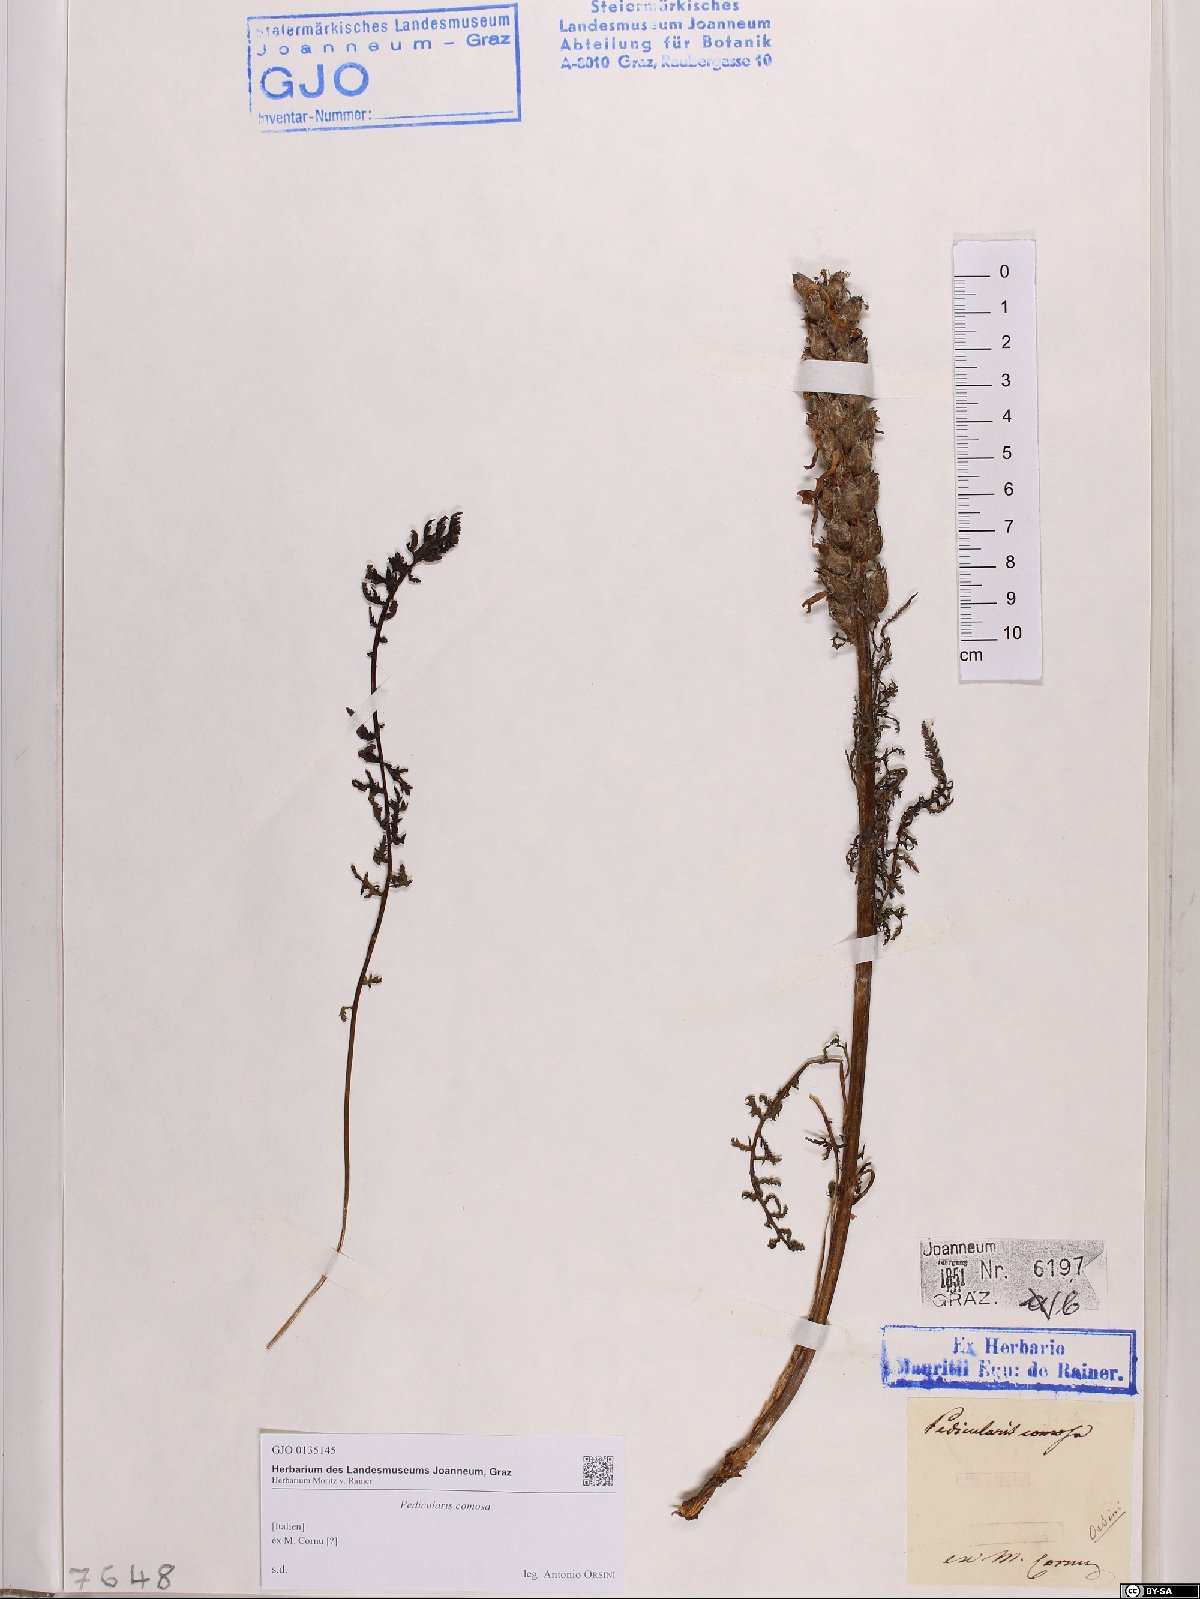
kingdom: Plantae
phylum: Tracheophyta
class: Magnoliopsida
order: Lamiales
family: Orobanchaceae
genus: Pedicularis
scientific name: Pedicularis comosa
